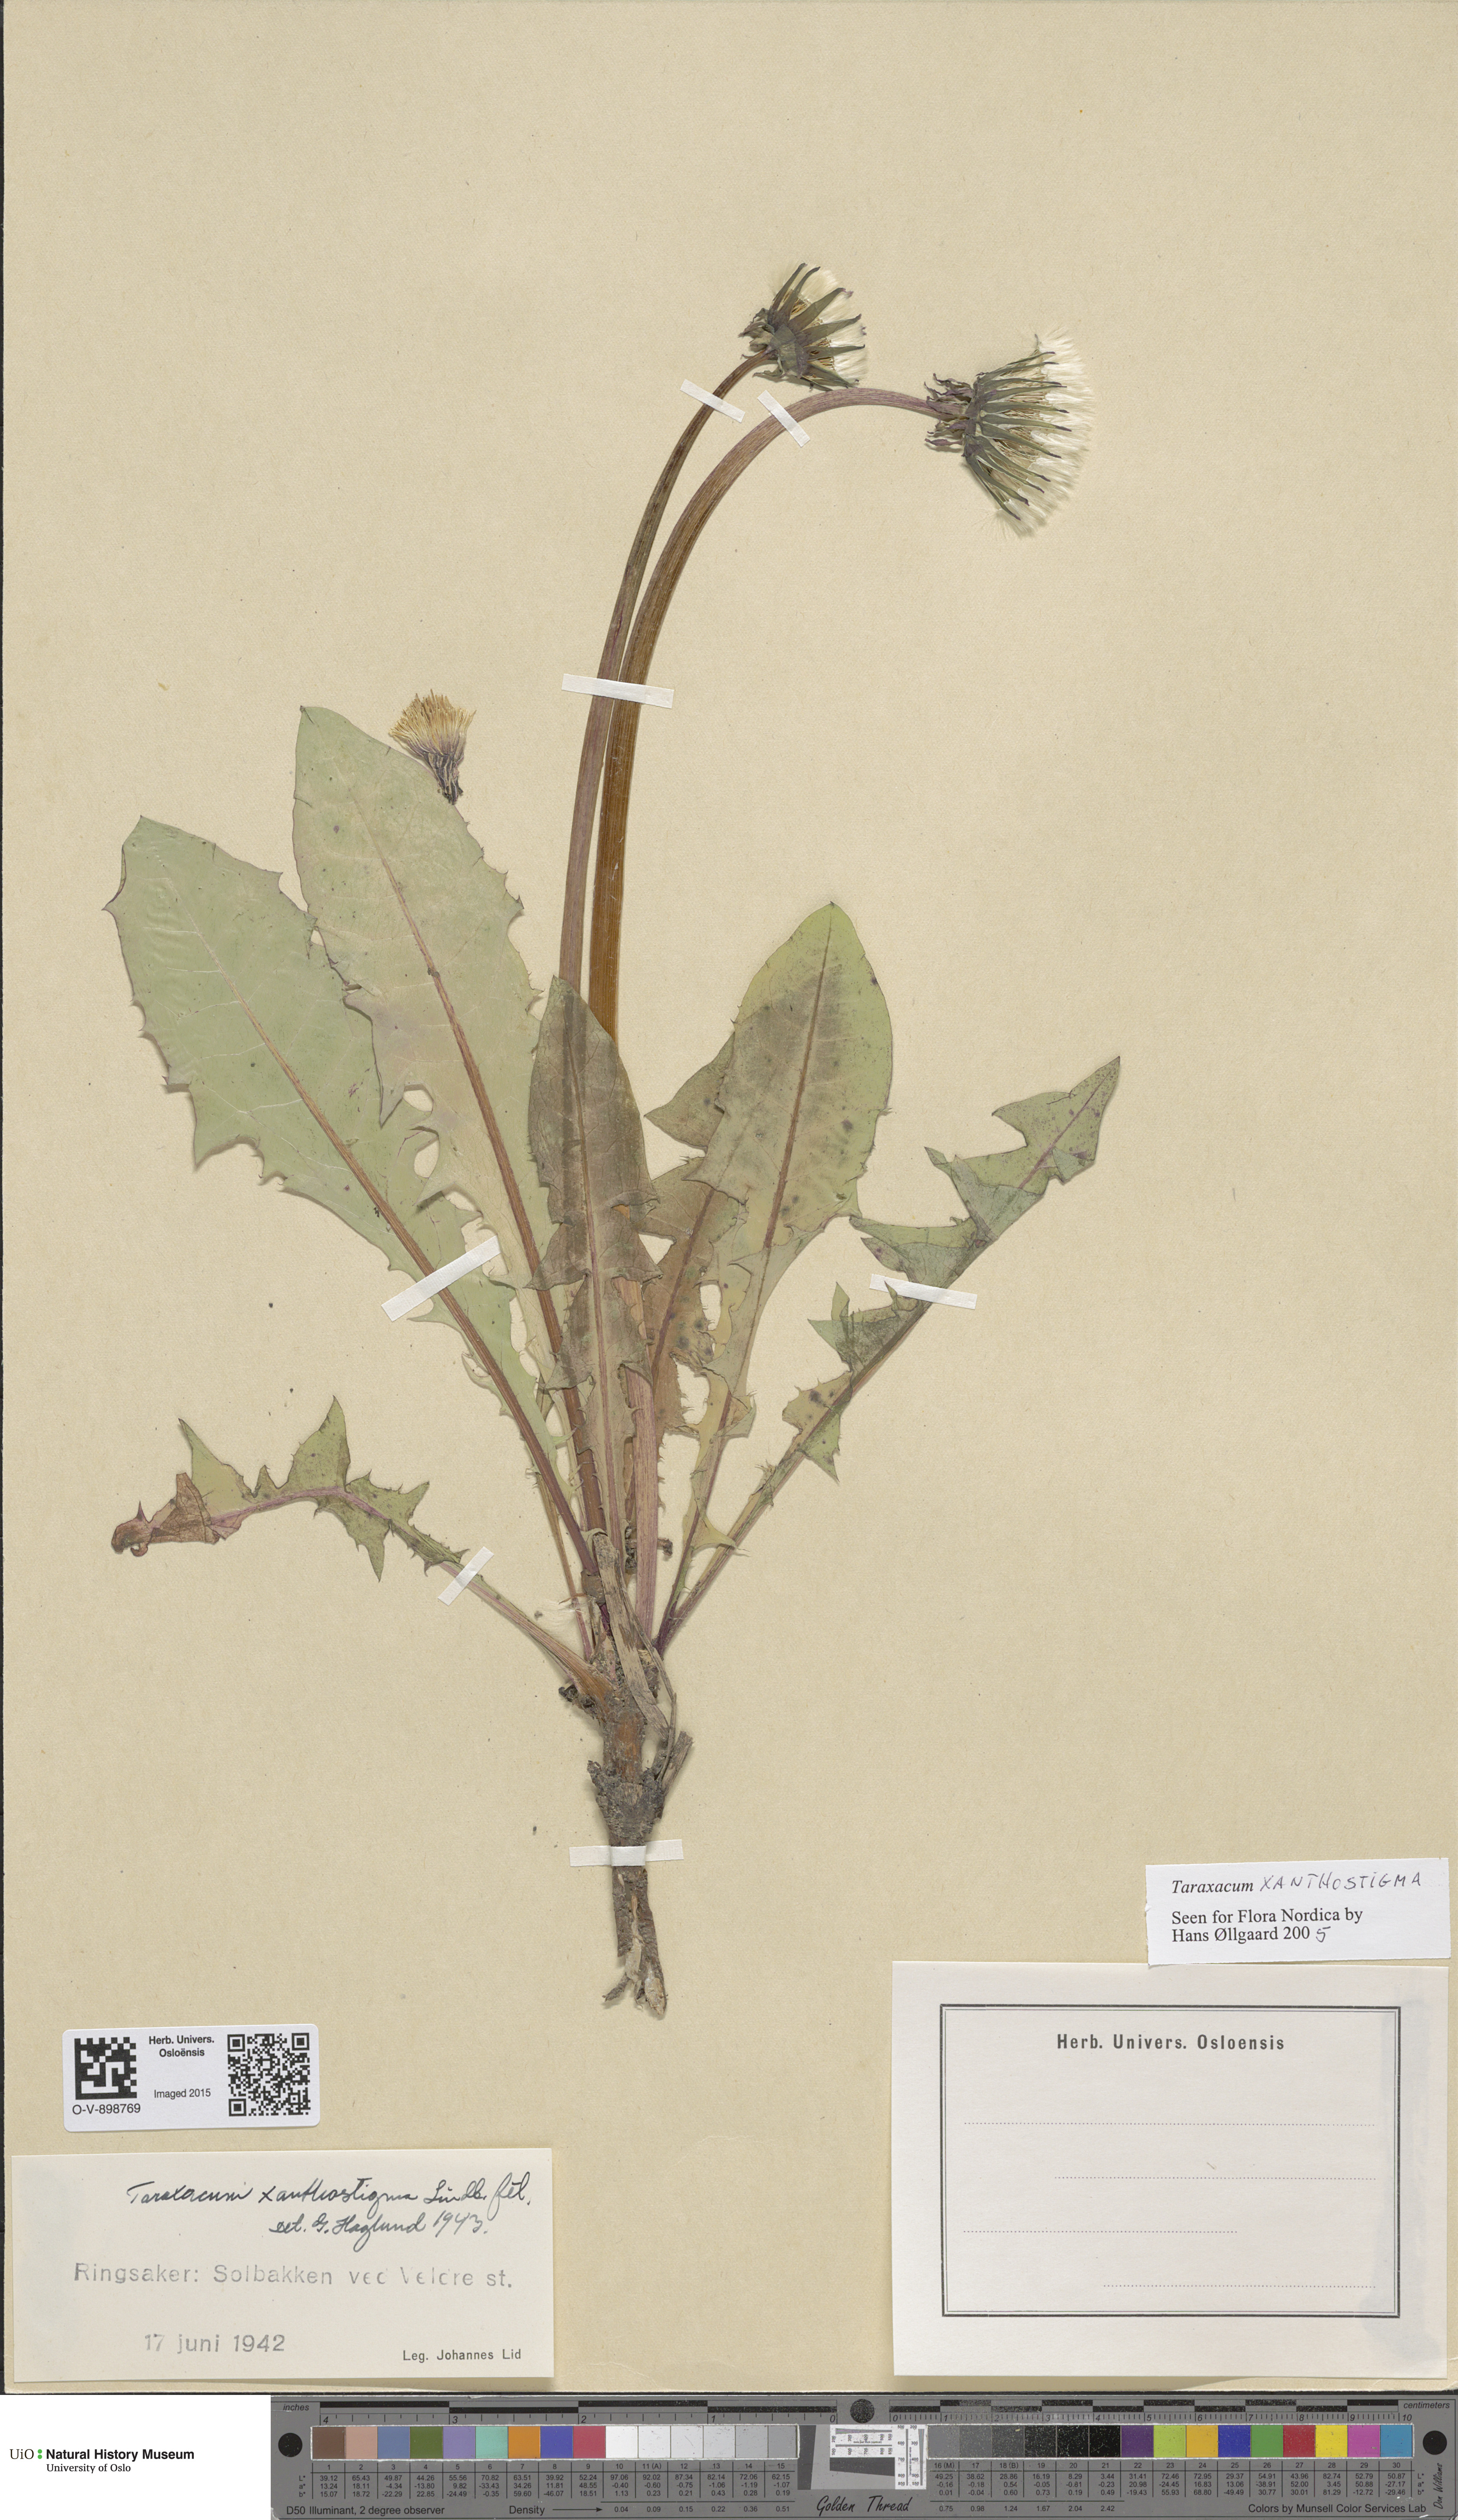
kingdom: Plantae
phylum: Tracheophyta
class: Magnoliopsida
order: Asterales
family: Asteraceae
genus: Taraxacum
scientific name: Taraxacum xanthostigma
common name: Ochre-styled dandelion
